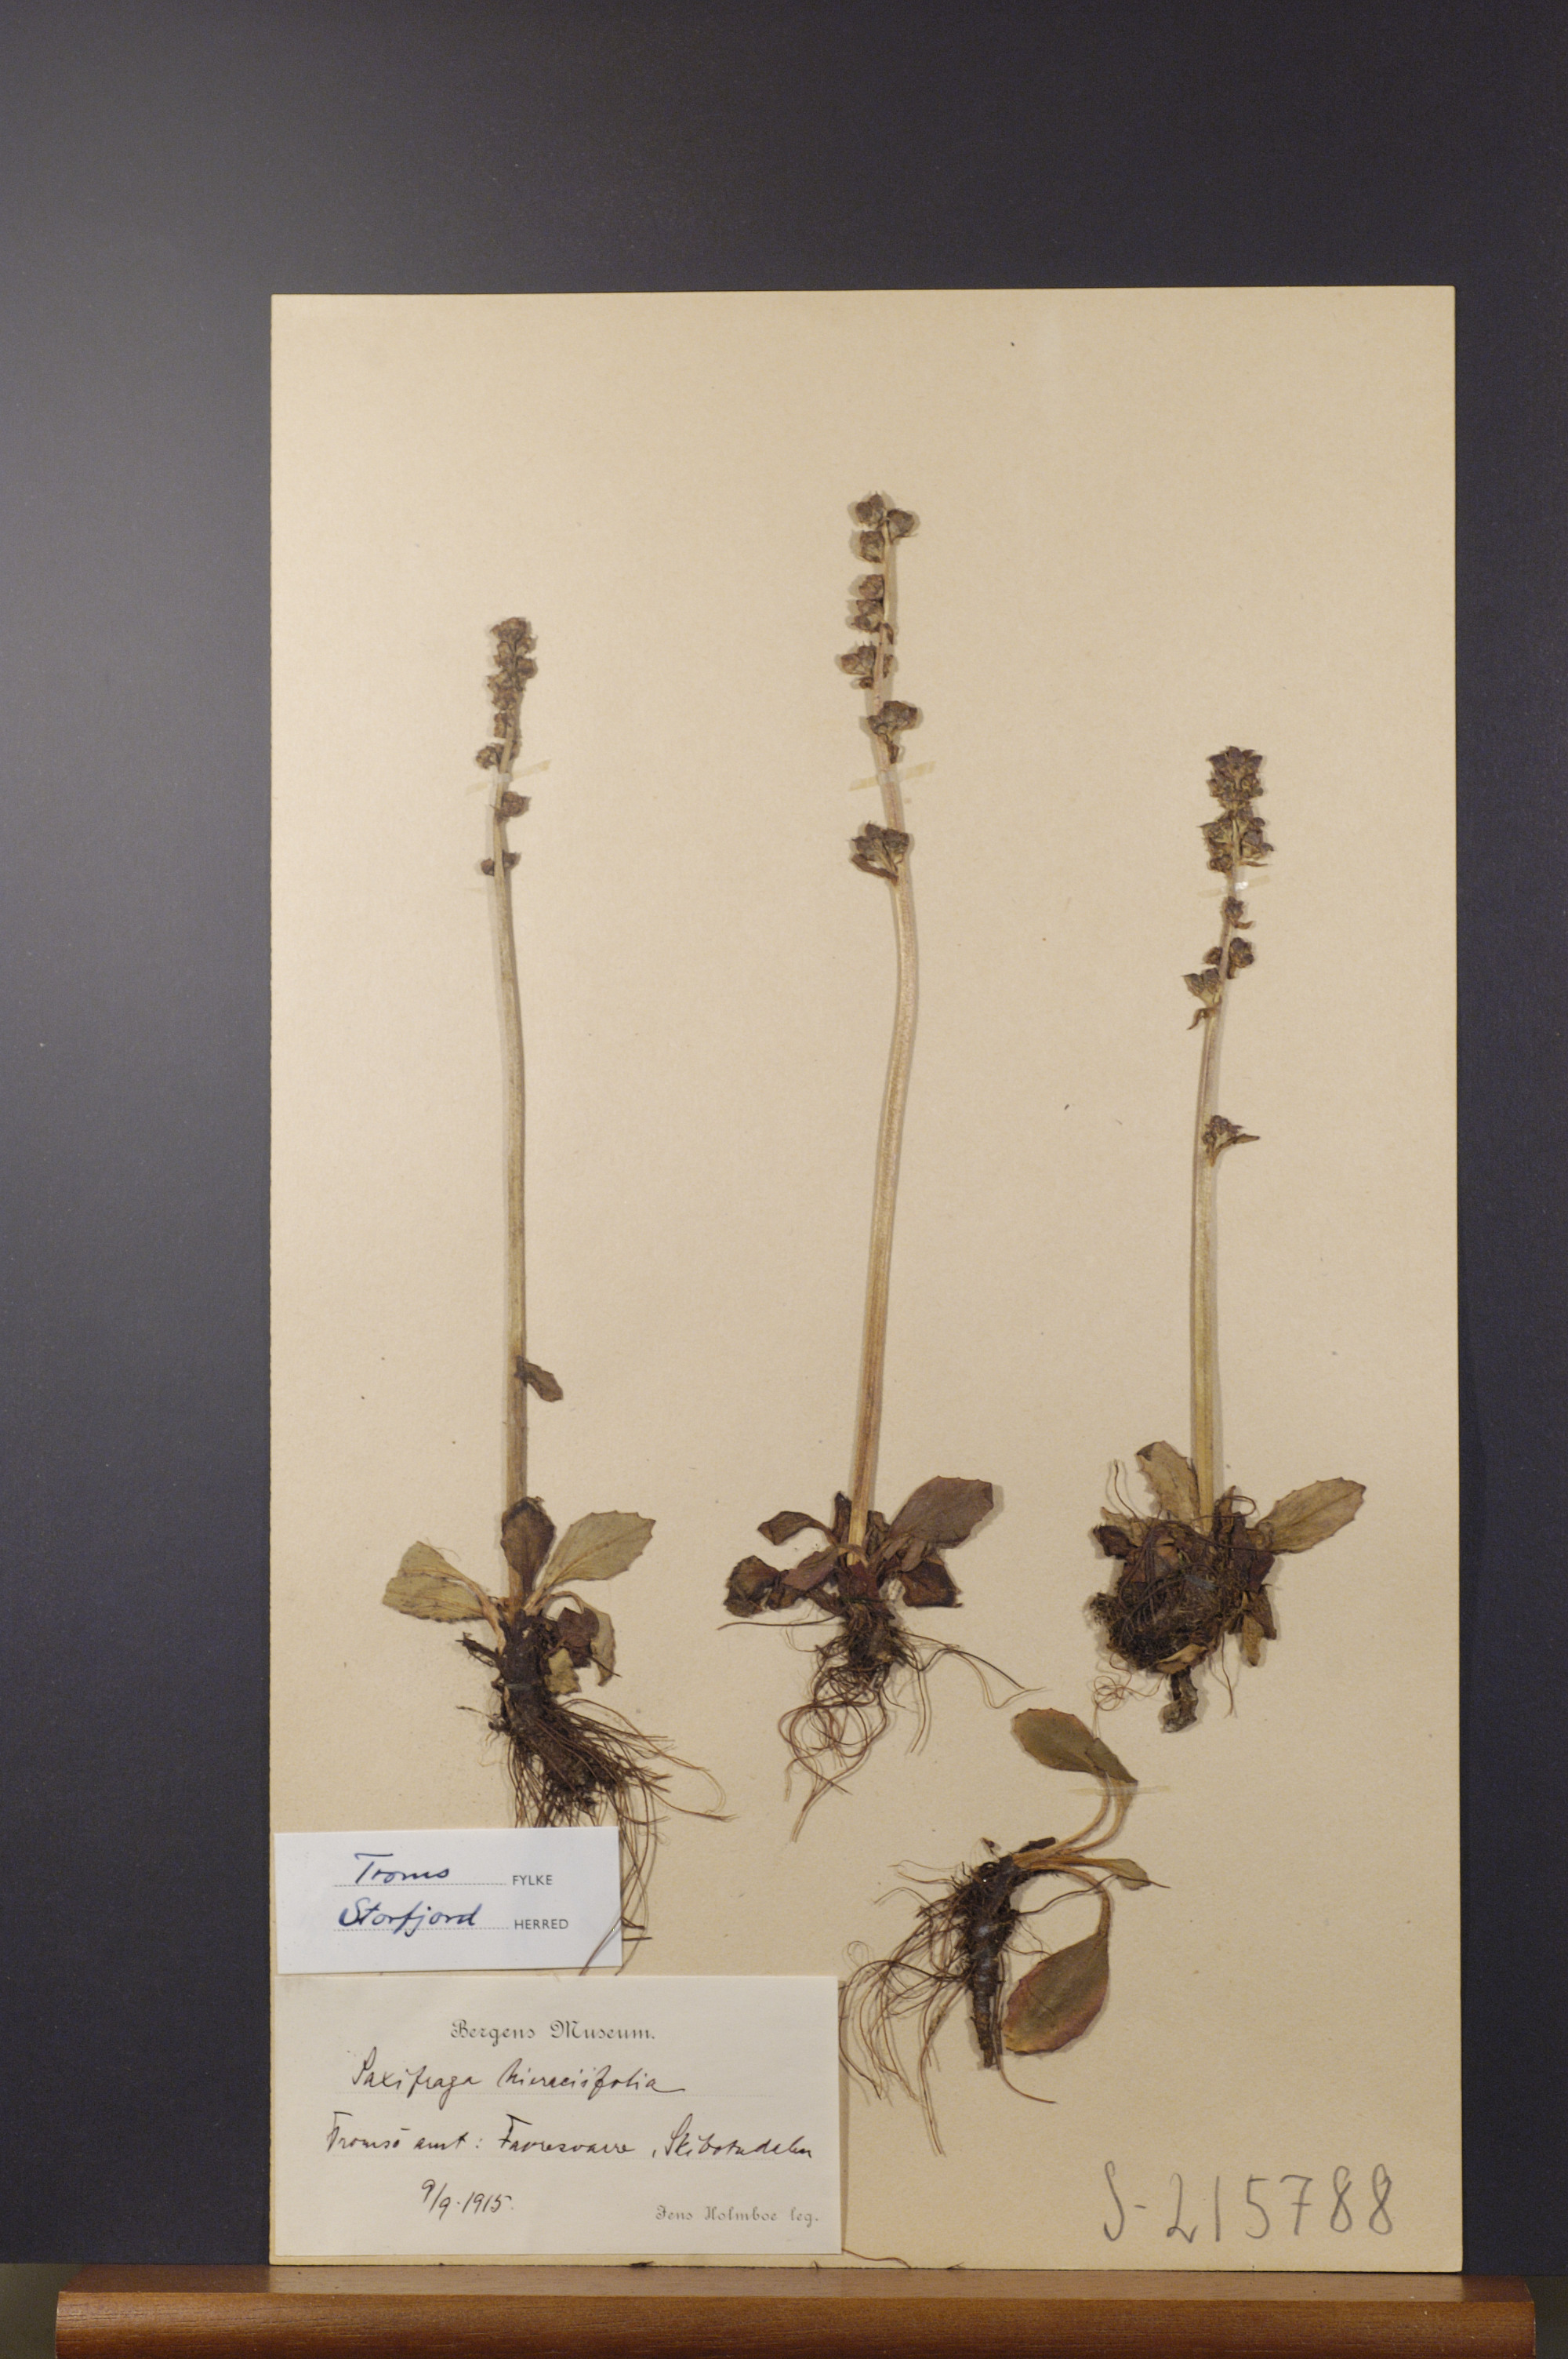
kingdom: Plantae
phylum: Tracheophyta
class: Magnoliopsida
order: Saxifragales
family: Saxifragaceae
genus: Micranthes
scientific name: Micranthes hieraciifolia
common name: Hawkweed-leaved saxifrage
